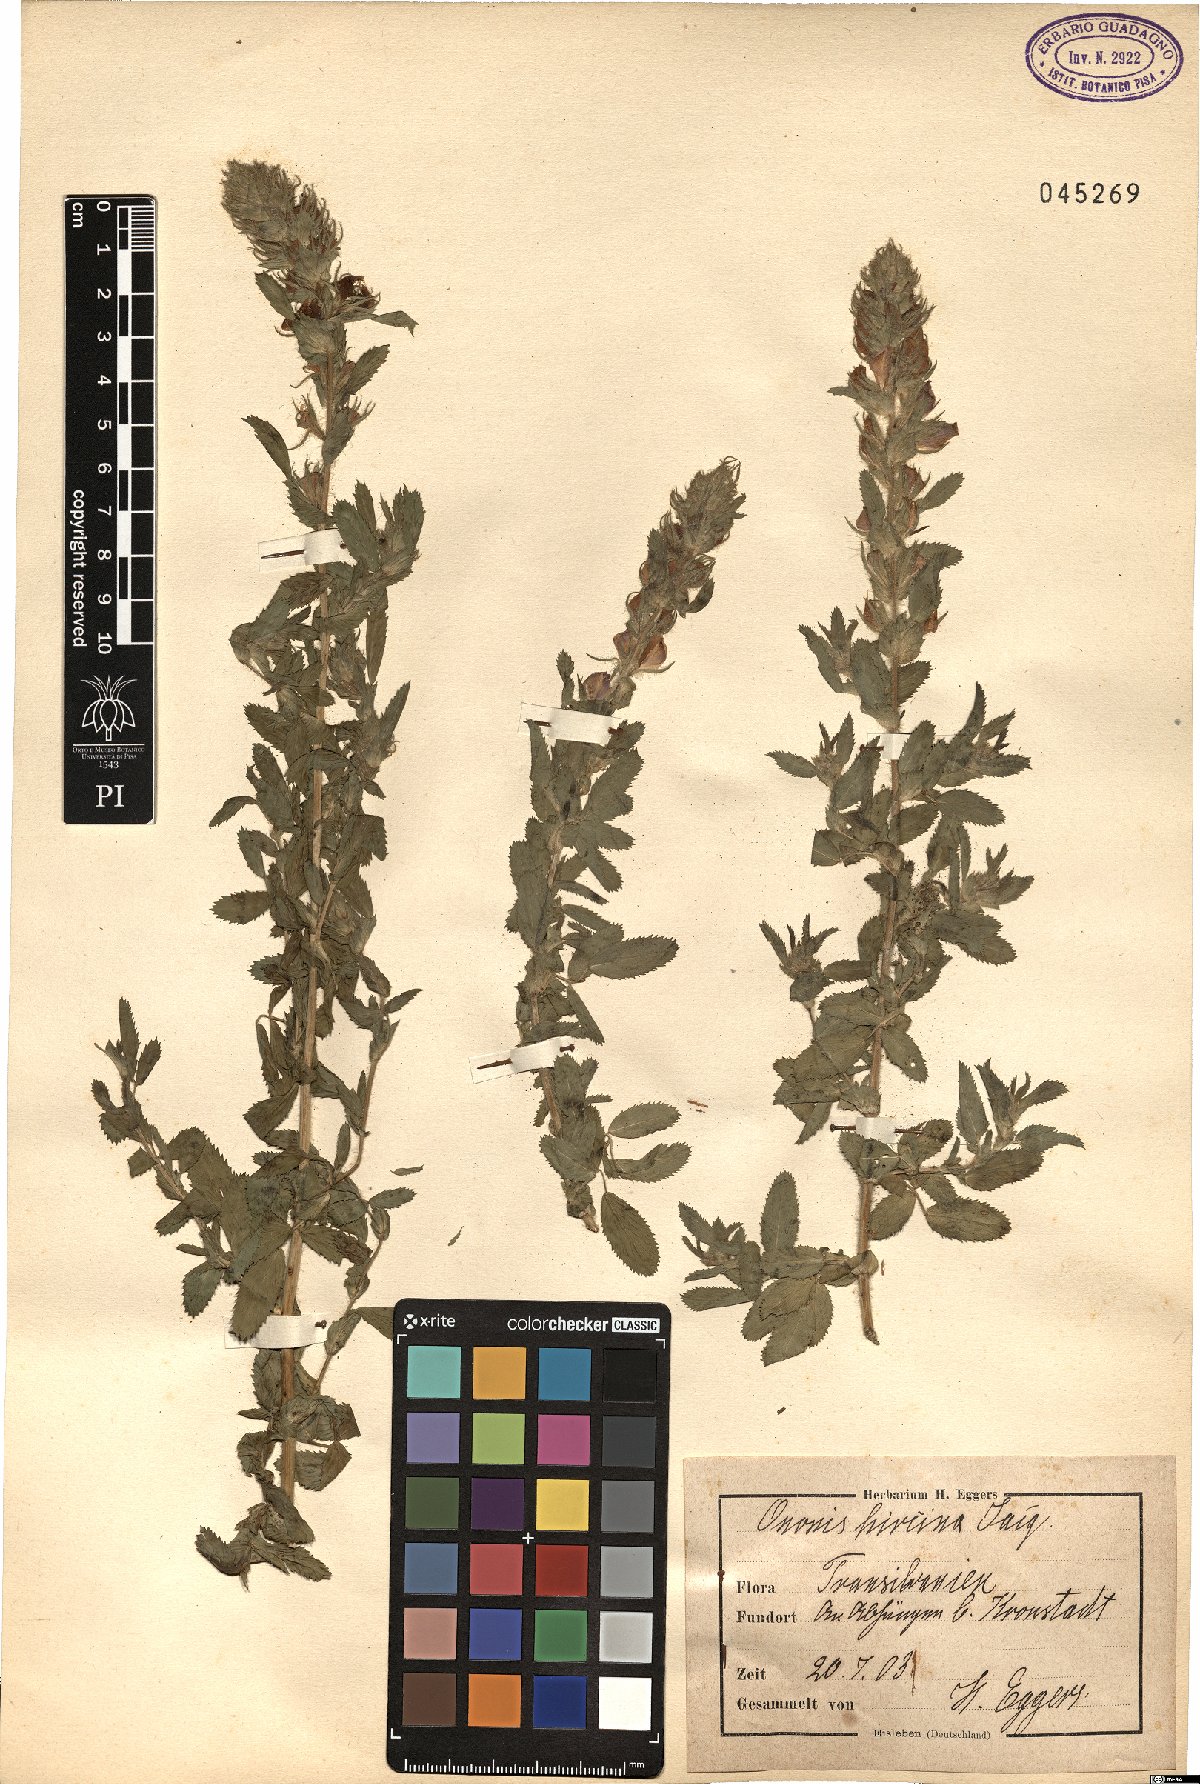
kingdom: Plantae
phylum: Tracheophyta
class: Magnoliopsida
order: Fabales
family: Fabaceae
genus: Ononis
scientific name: Ononis arvensis
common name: Field restharrow
